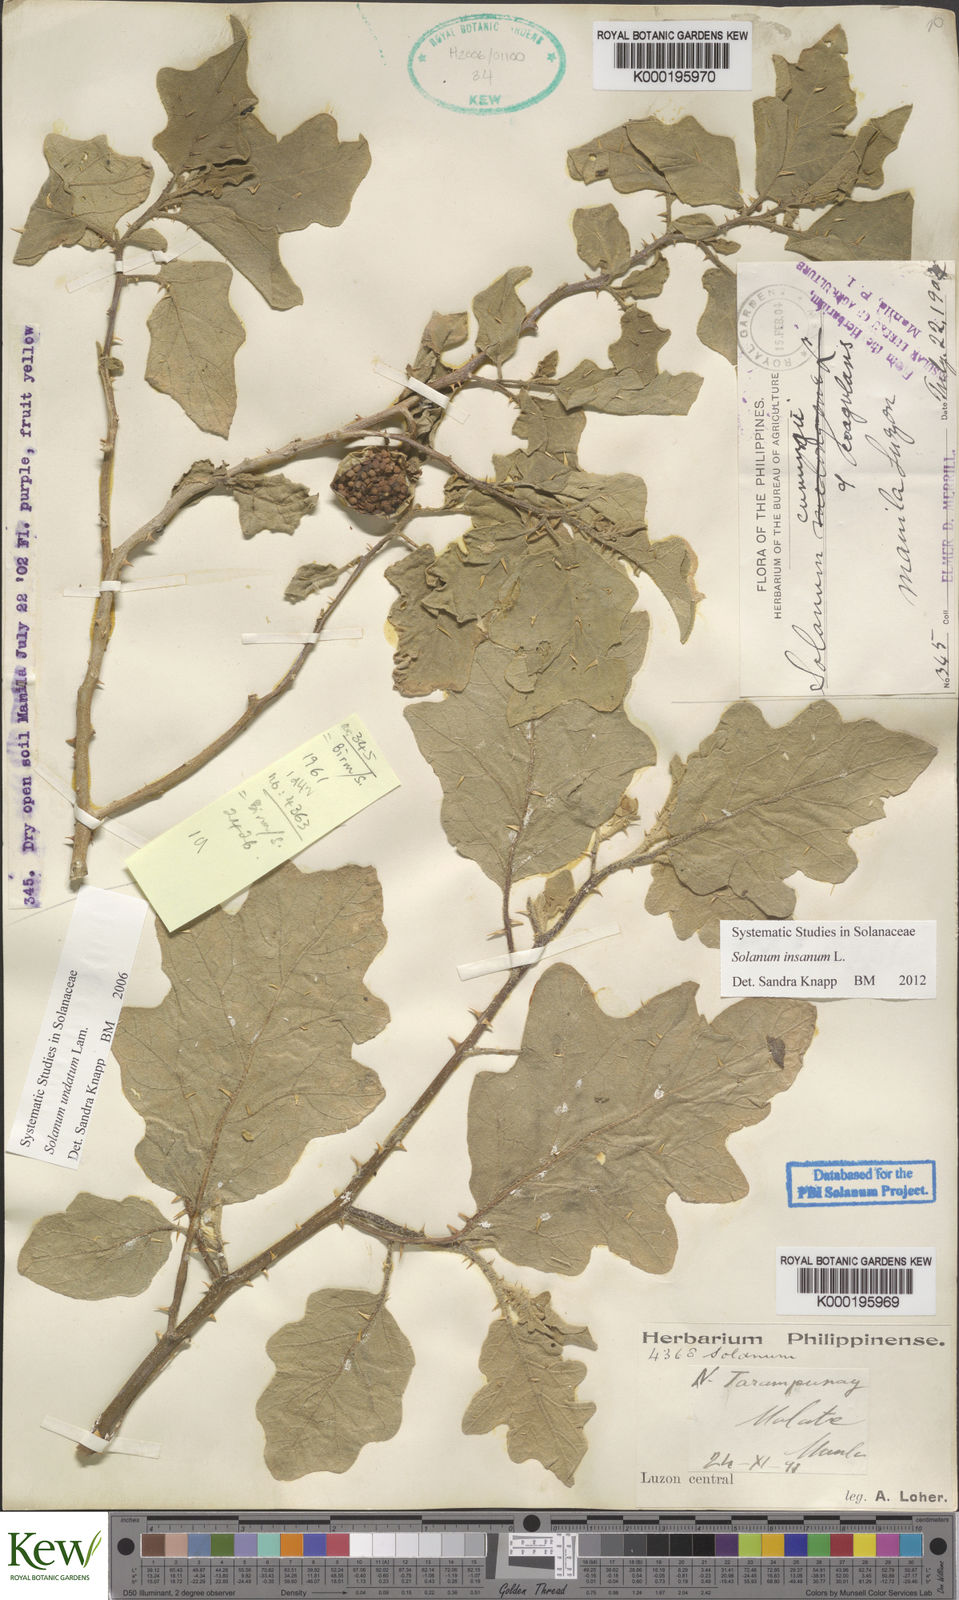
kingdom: Plantae
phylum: Tracheophyta
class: Magnoliopsida
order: Solanales
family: Solanaceae
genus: Solanum
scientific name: Solanum insanum
